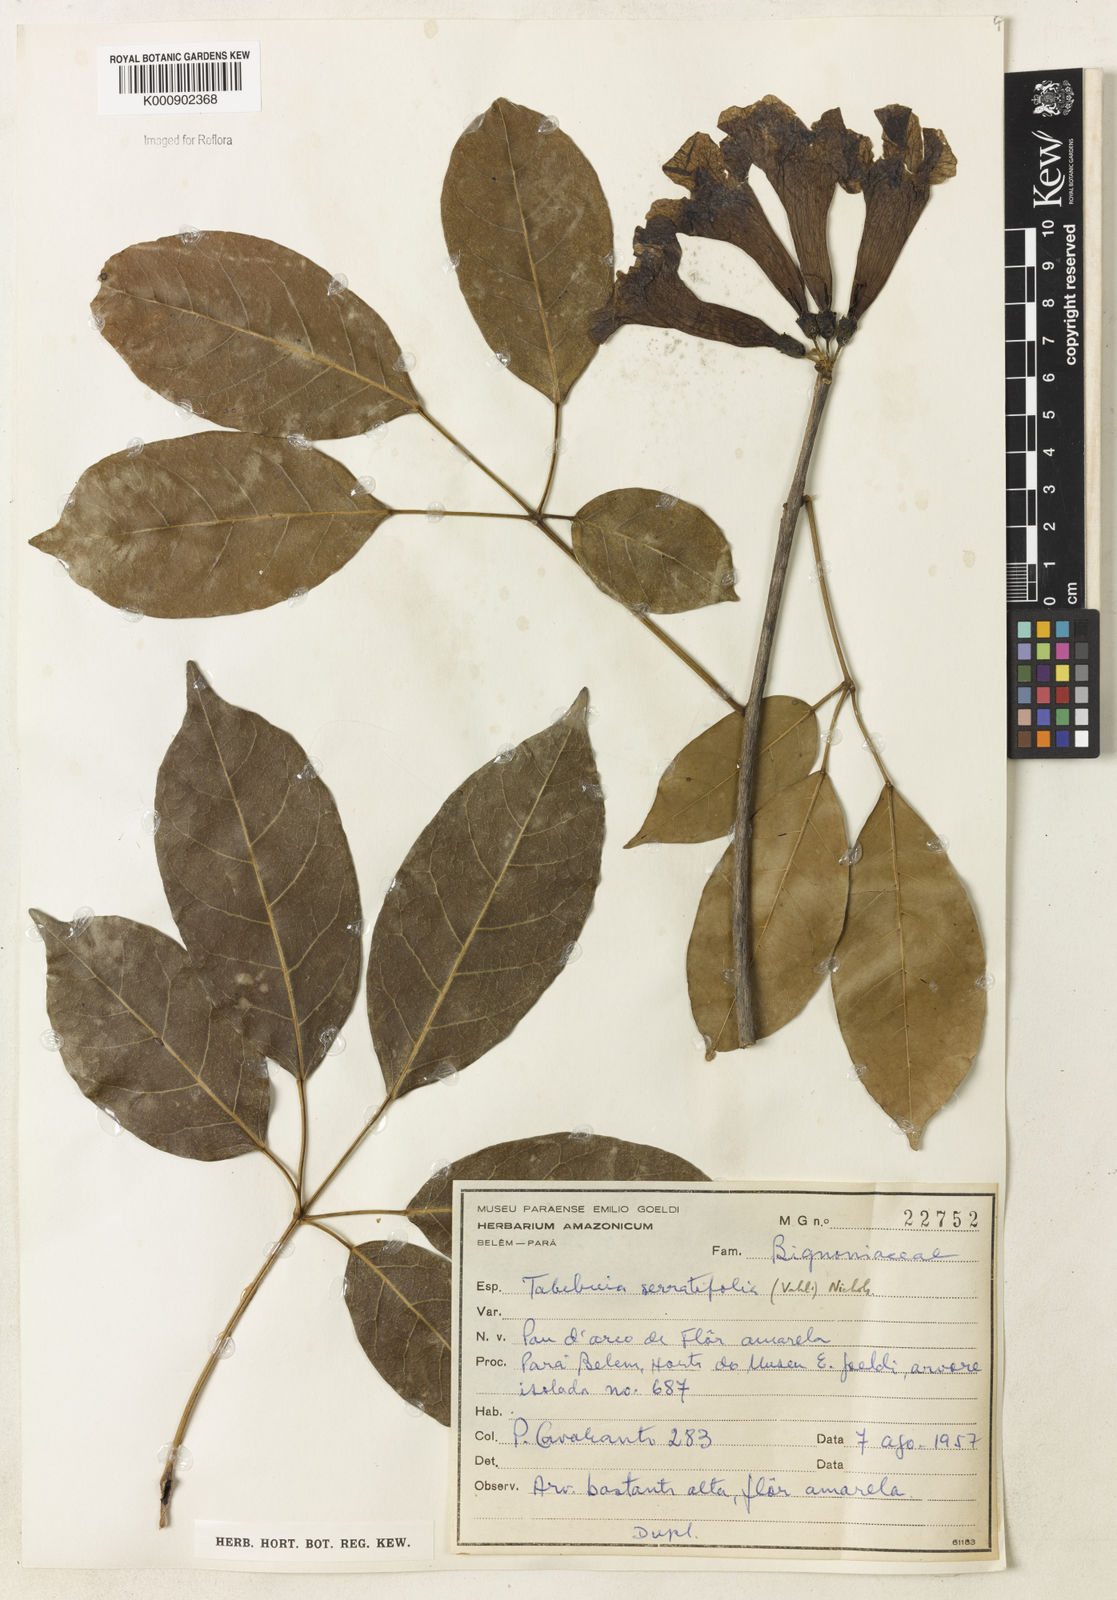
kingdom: Plantae
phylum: Tracheophyta
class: Magnoliopsida
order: Lamiales
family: Bignoniaceae
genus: Handroanthus
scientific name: Handroanthus serratifolius
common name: Yellow ipe
